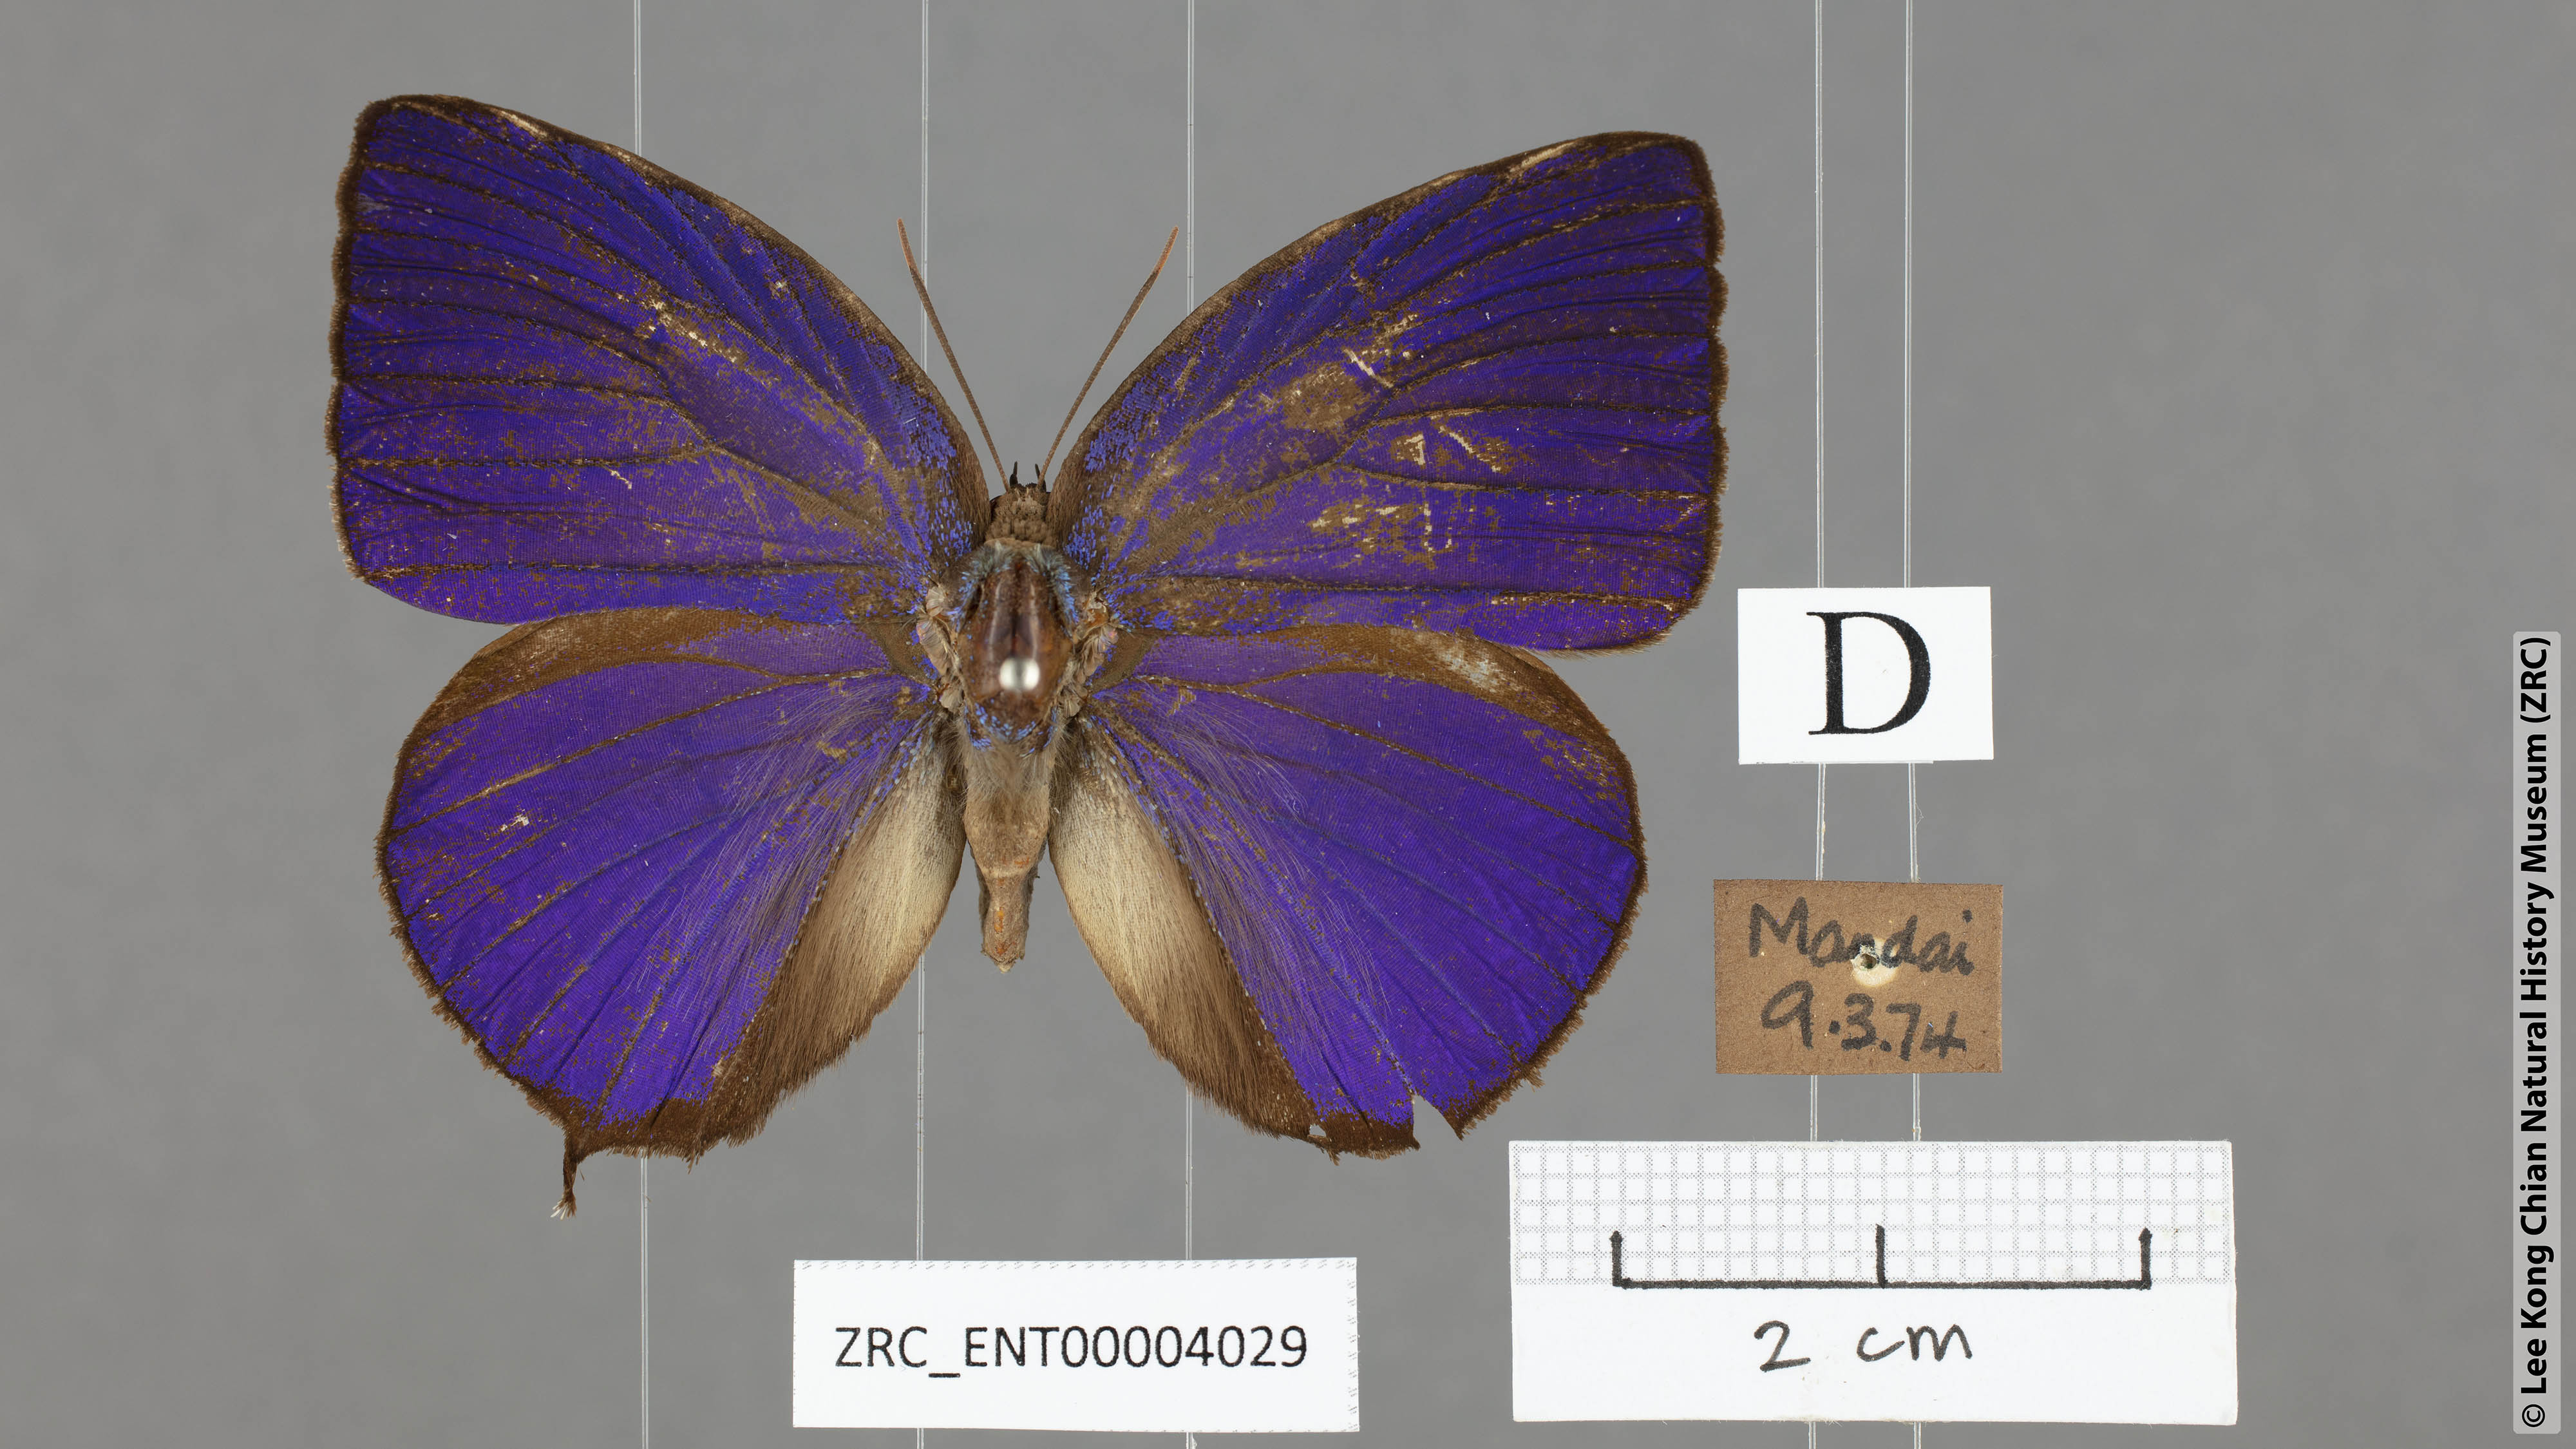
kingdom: Animalia
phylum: Arthropoda
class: Insecta
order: Lepidoptera
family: Lycaenidae
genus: Arhopala
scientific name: Arhopala centaurus
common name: Dull oak-blue
